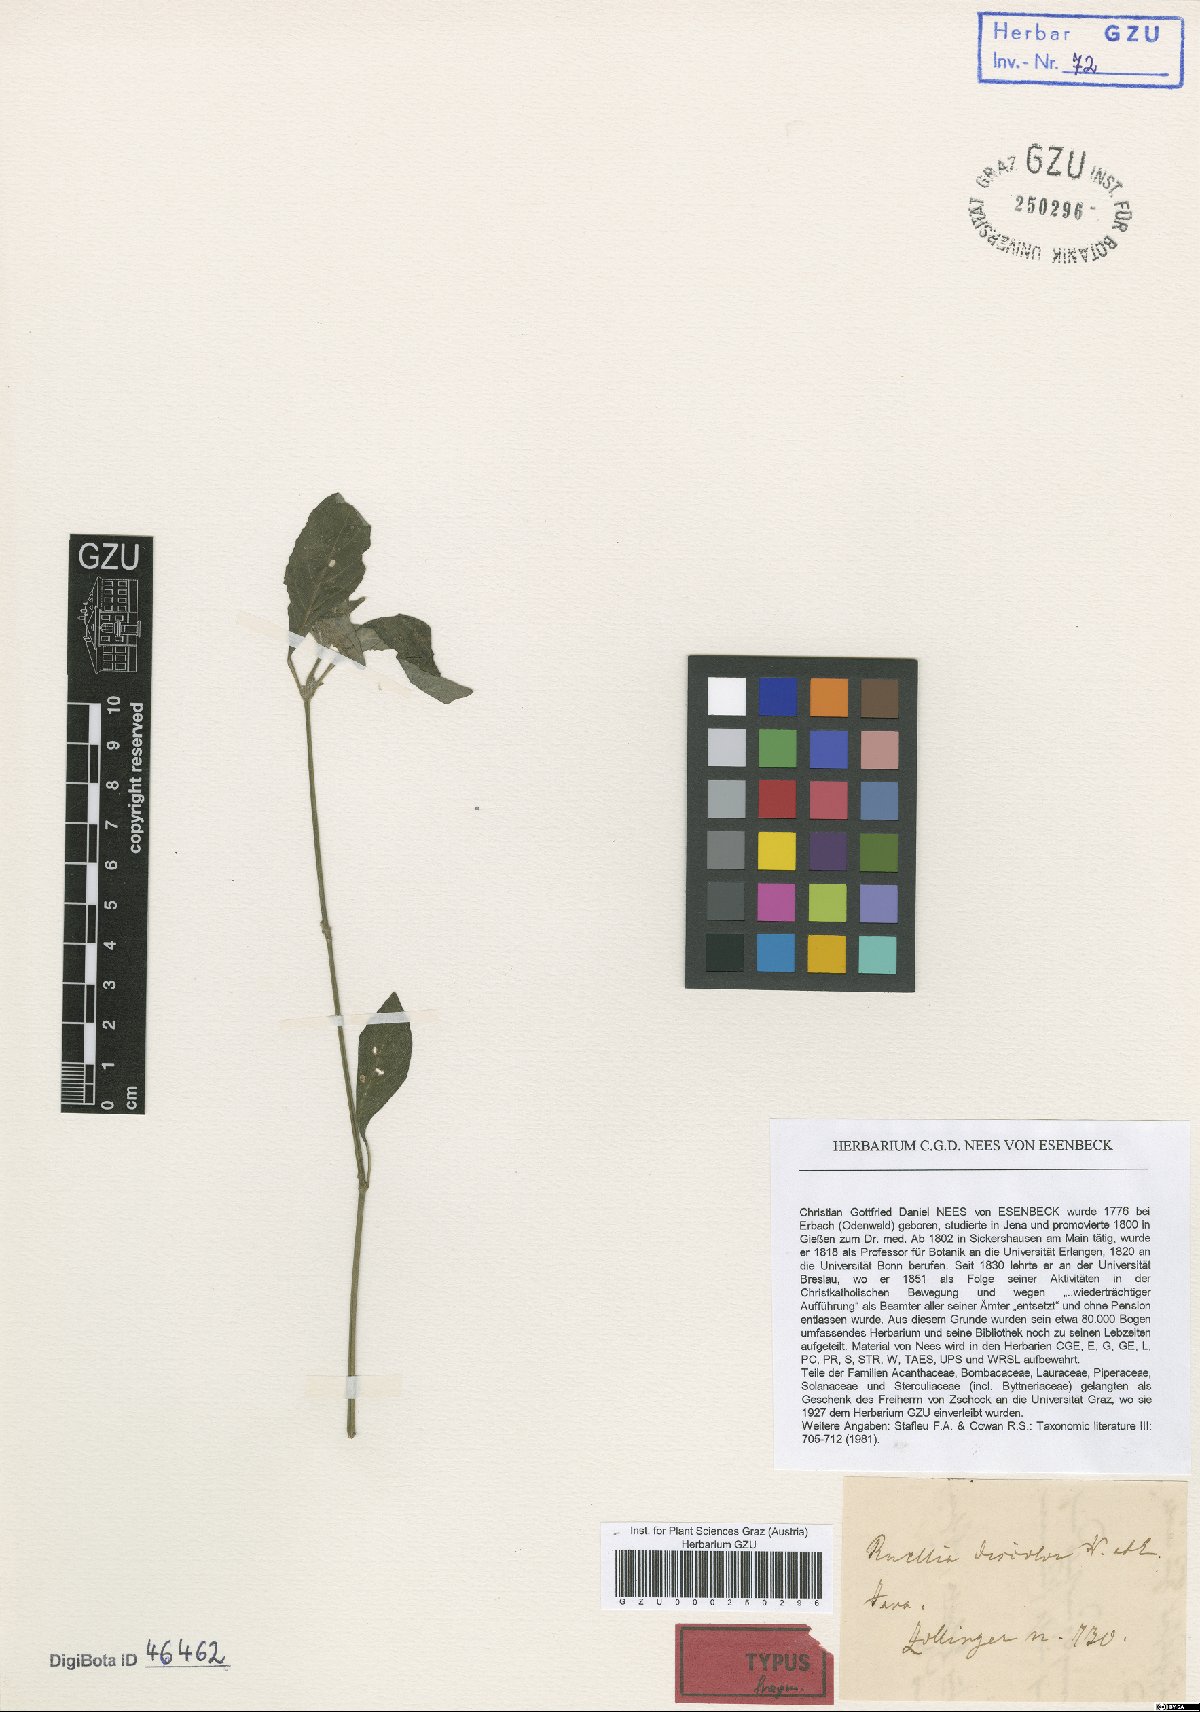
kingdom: Plantae
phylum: Tracheophyta
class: Magnoliopsida
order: Lamiales
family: Acanthaceae
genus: Ruellia
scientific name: Ruellia discolor
